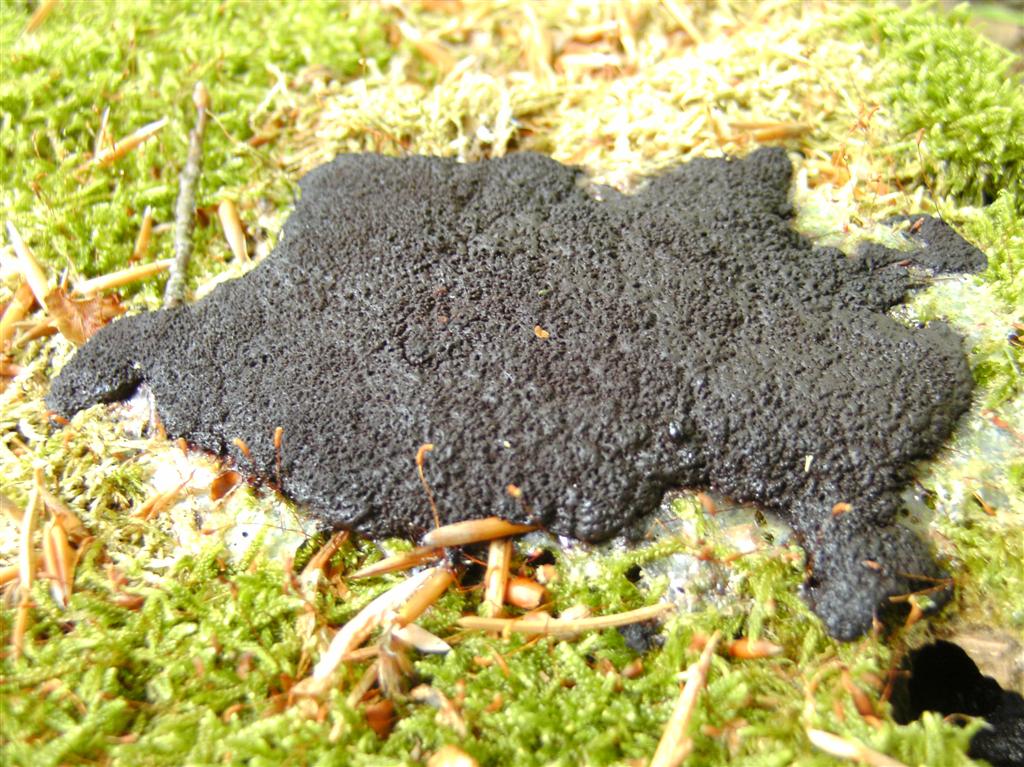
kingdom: Protozoa
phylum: Mycetozoa
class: Myxomycetes
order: Stemonitidales
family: Stemonitidaceae
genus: Symphytocarpus
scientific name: Symphytocarpus amaurochaetoides
